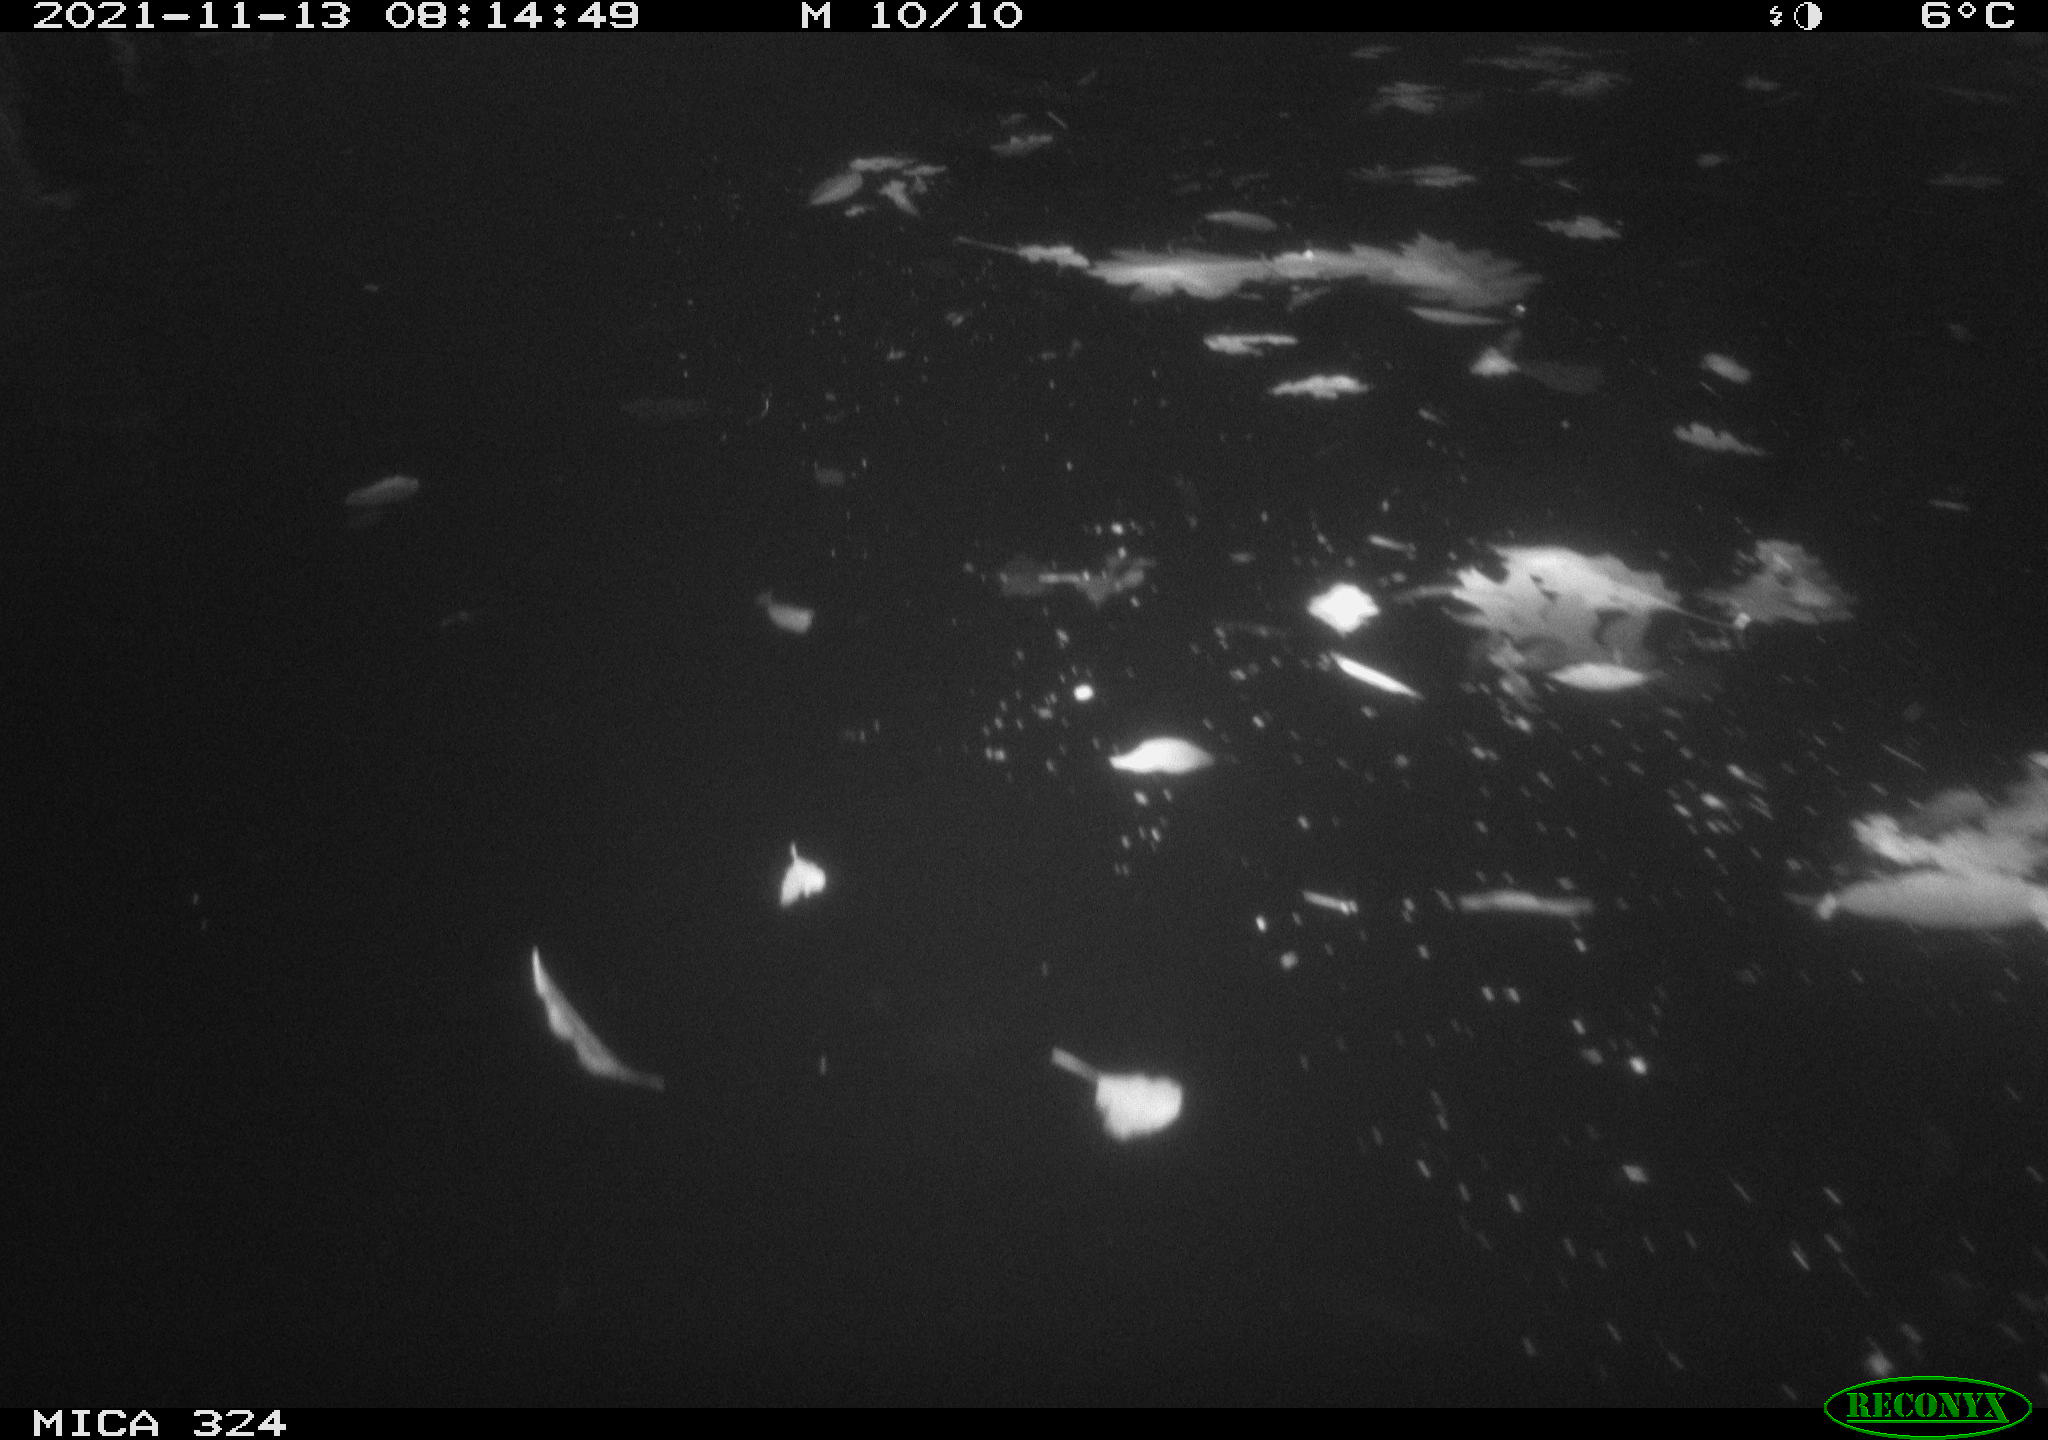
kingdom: Animalia
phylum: Chordata
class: Mammalia
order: Rodentia
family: Cricetidae
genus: Ondatra
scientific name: Ondatra zibethicus
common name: Muskrat
